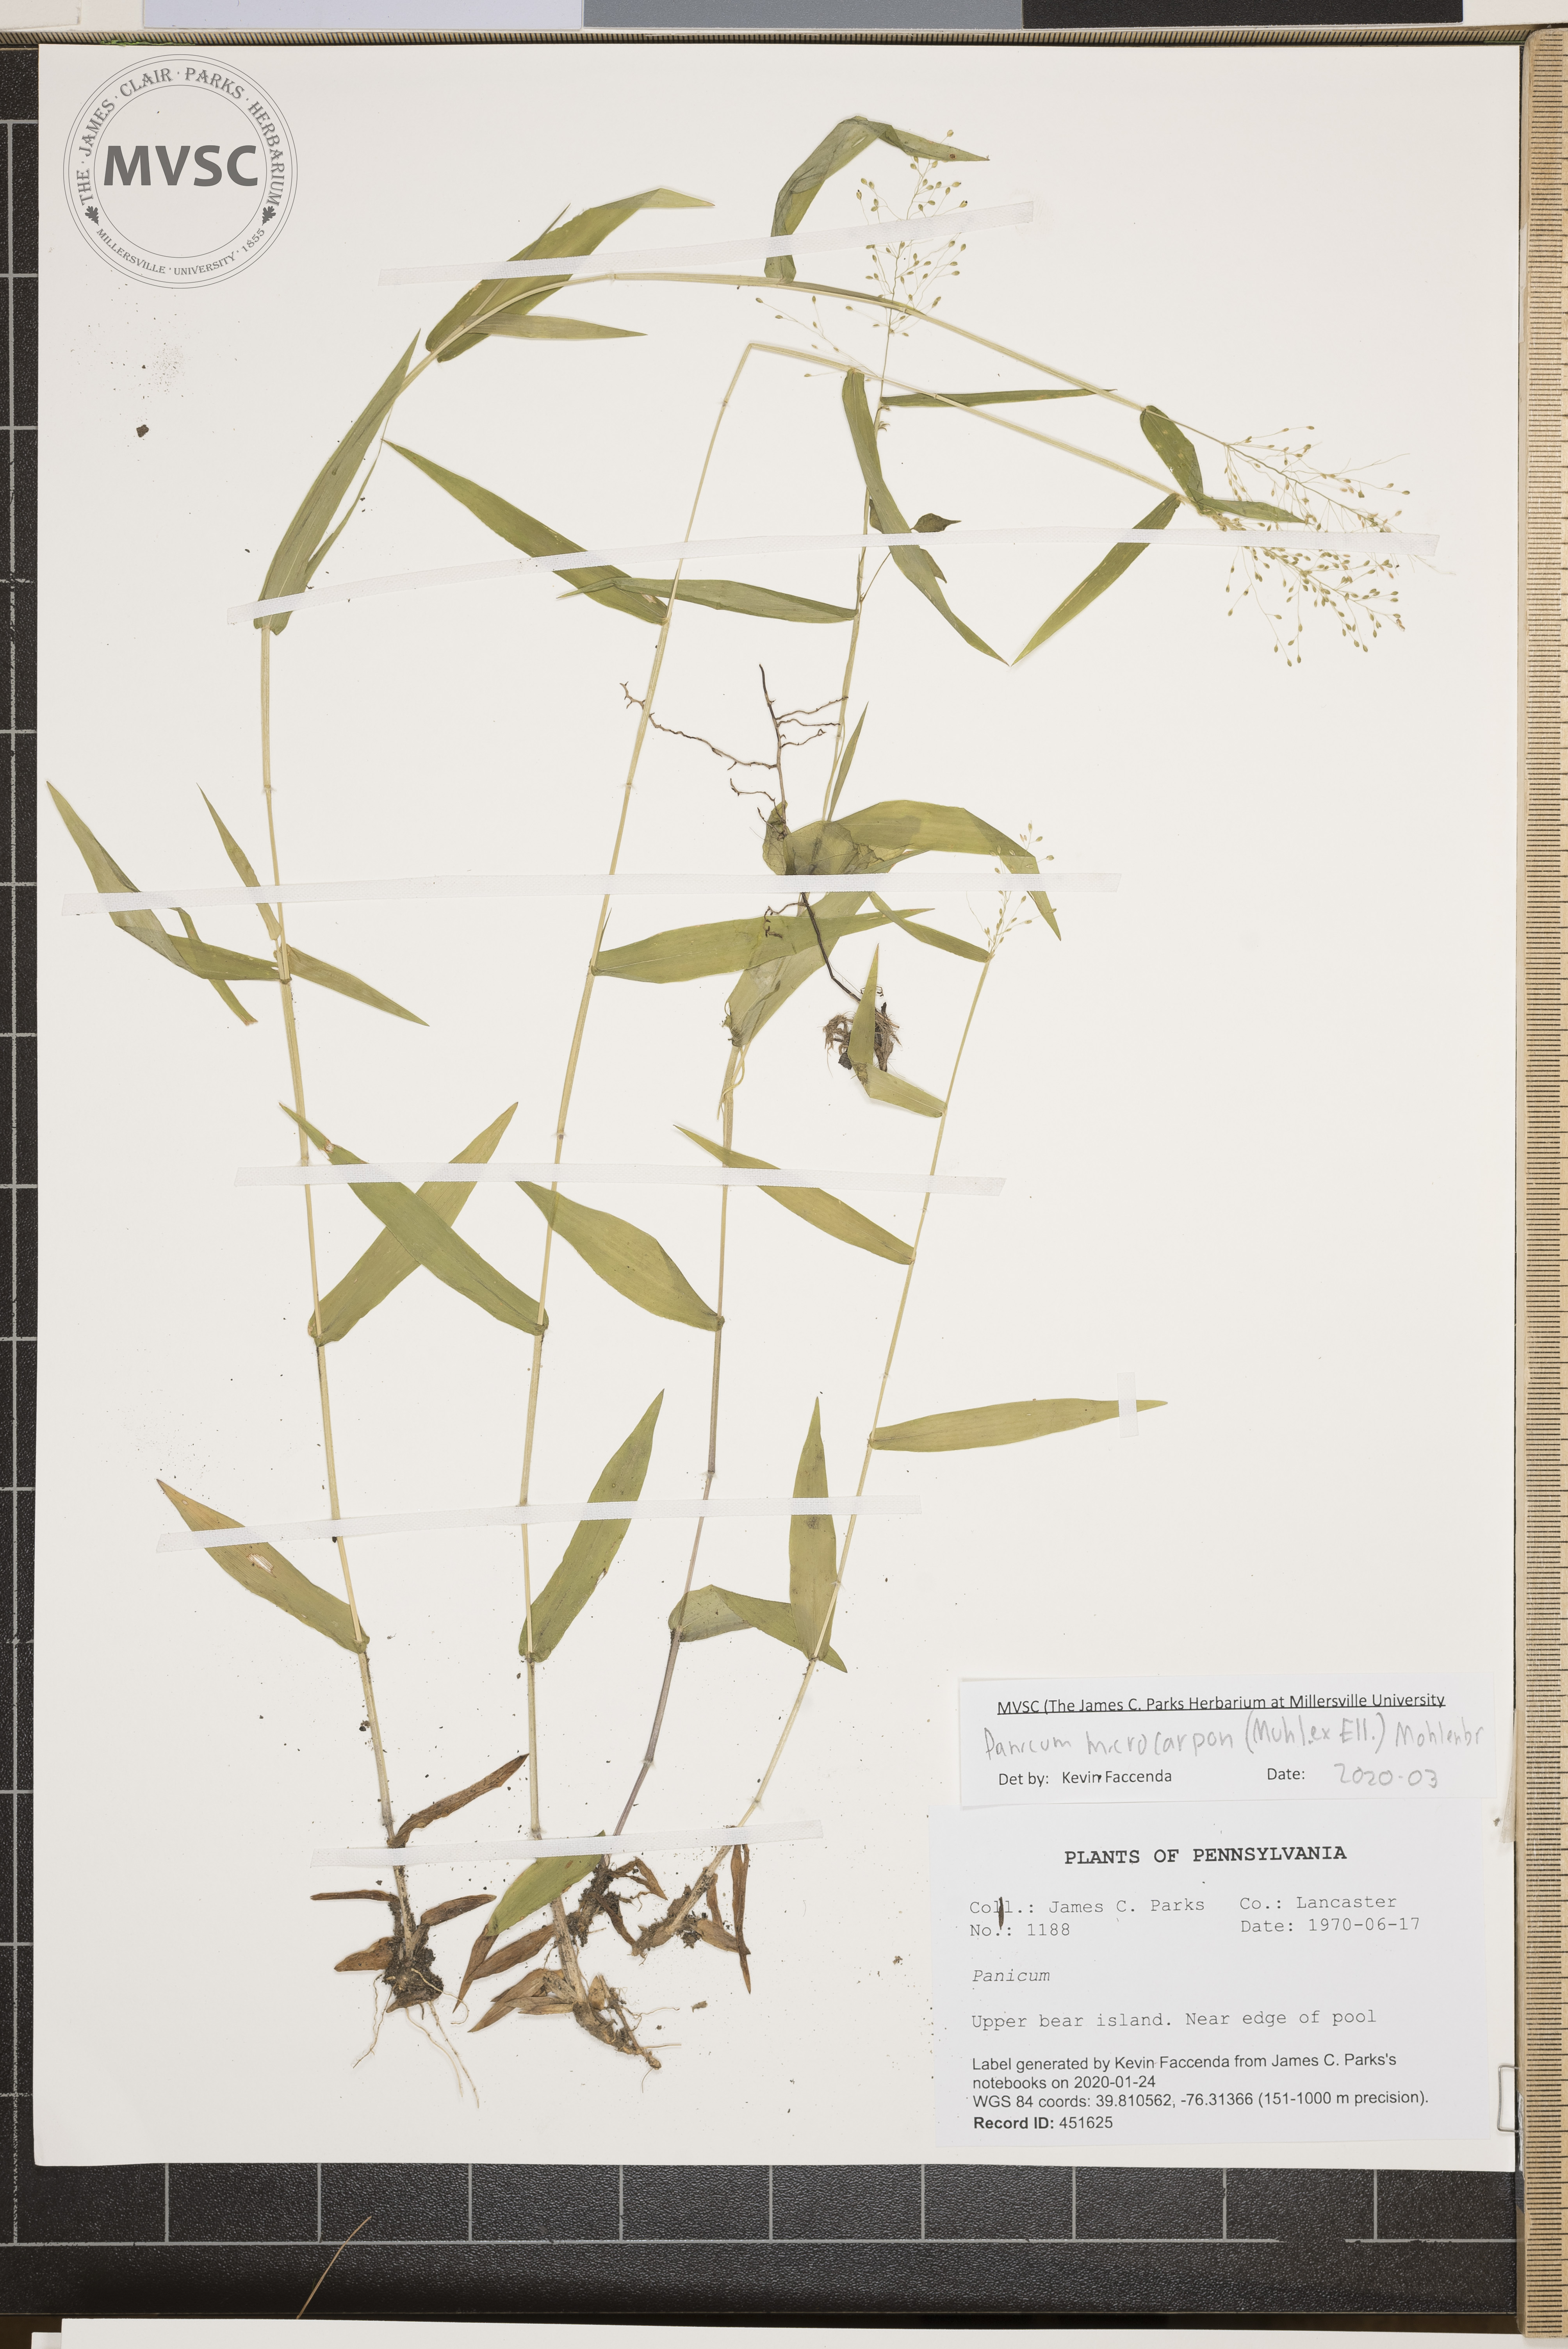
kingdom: Plantae
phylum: Tracheophyta
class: Liliopsida
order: Poales
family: Poaceae
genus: Dichanthelium
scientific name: Dichanthelium microcarpon
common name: Small-fruited witchgrass
